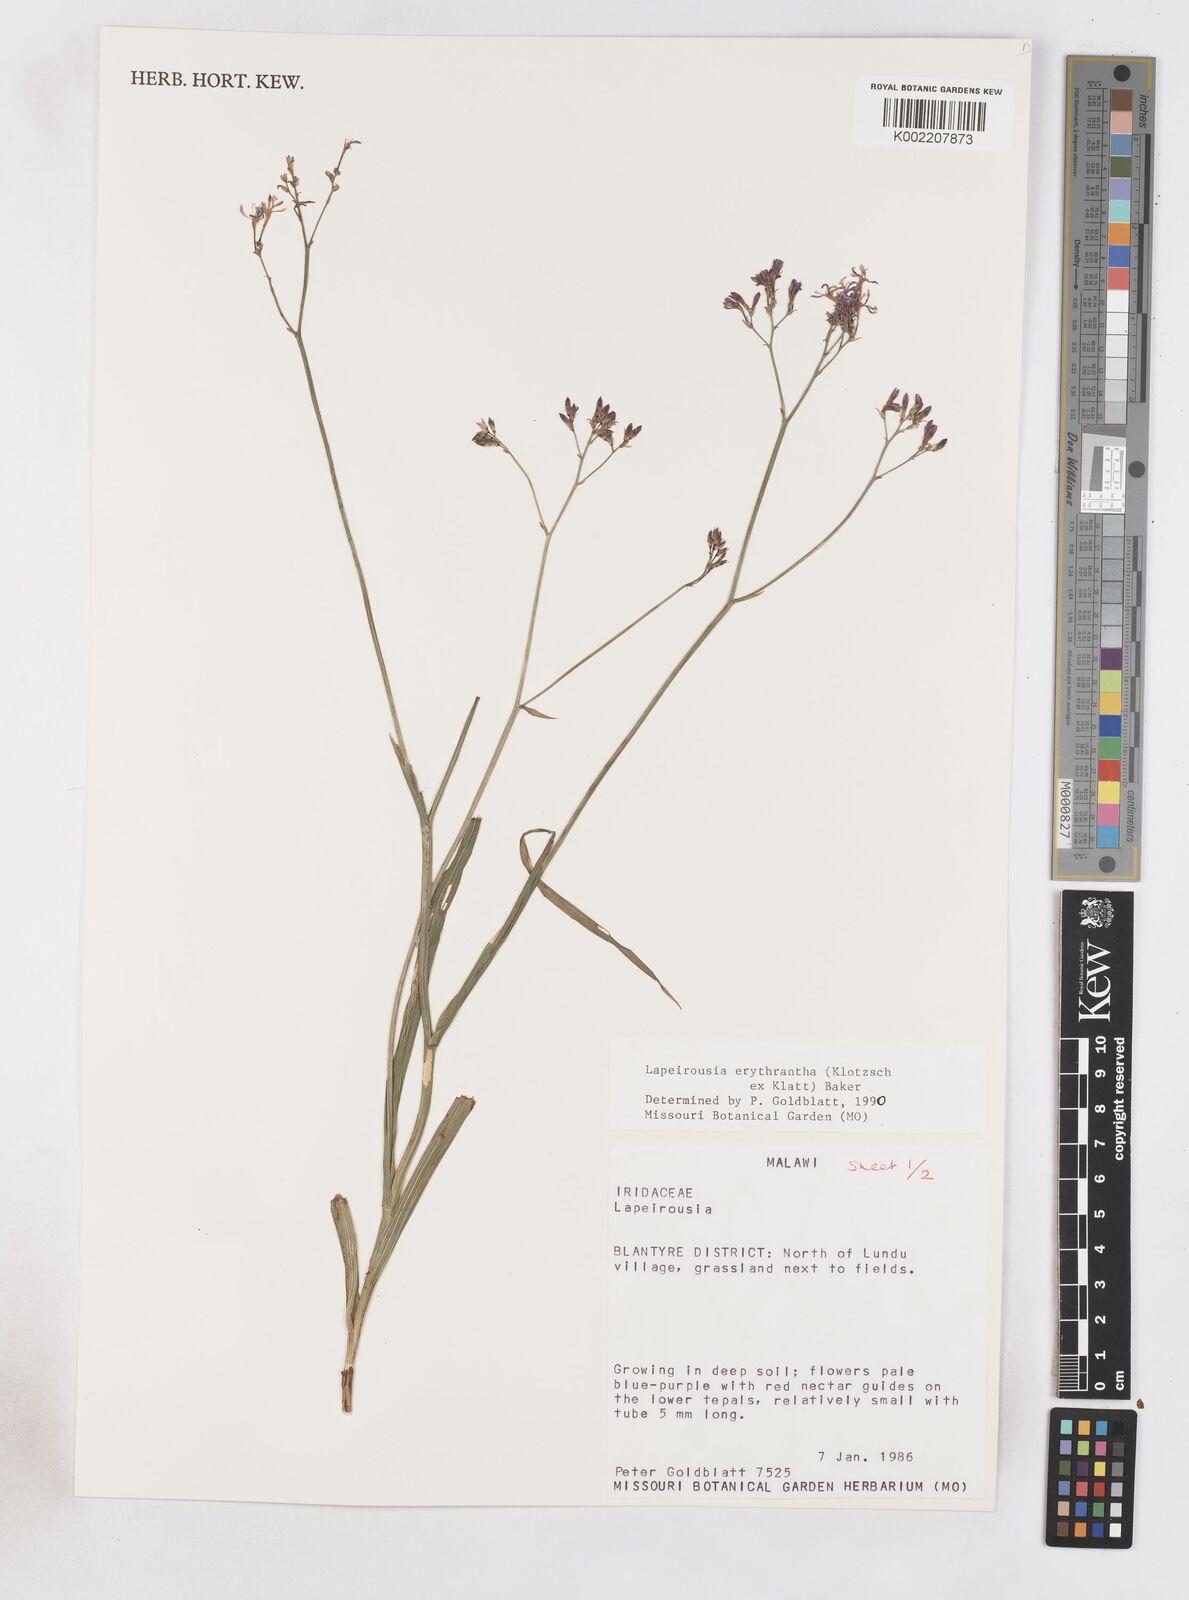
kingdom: Plantae
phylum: Tracheophyta
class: Liliopsida
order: Asparagales
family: Iridaceae
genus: Afrosolen
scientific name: Afrosolen erythranthus
